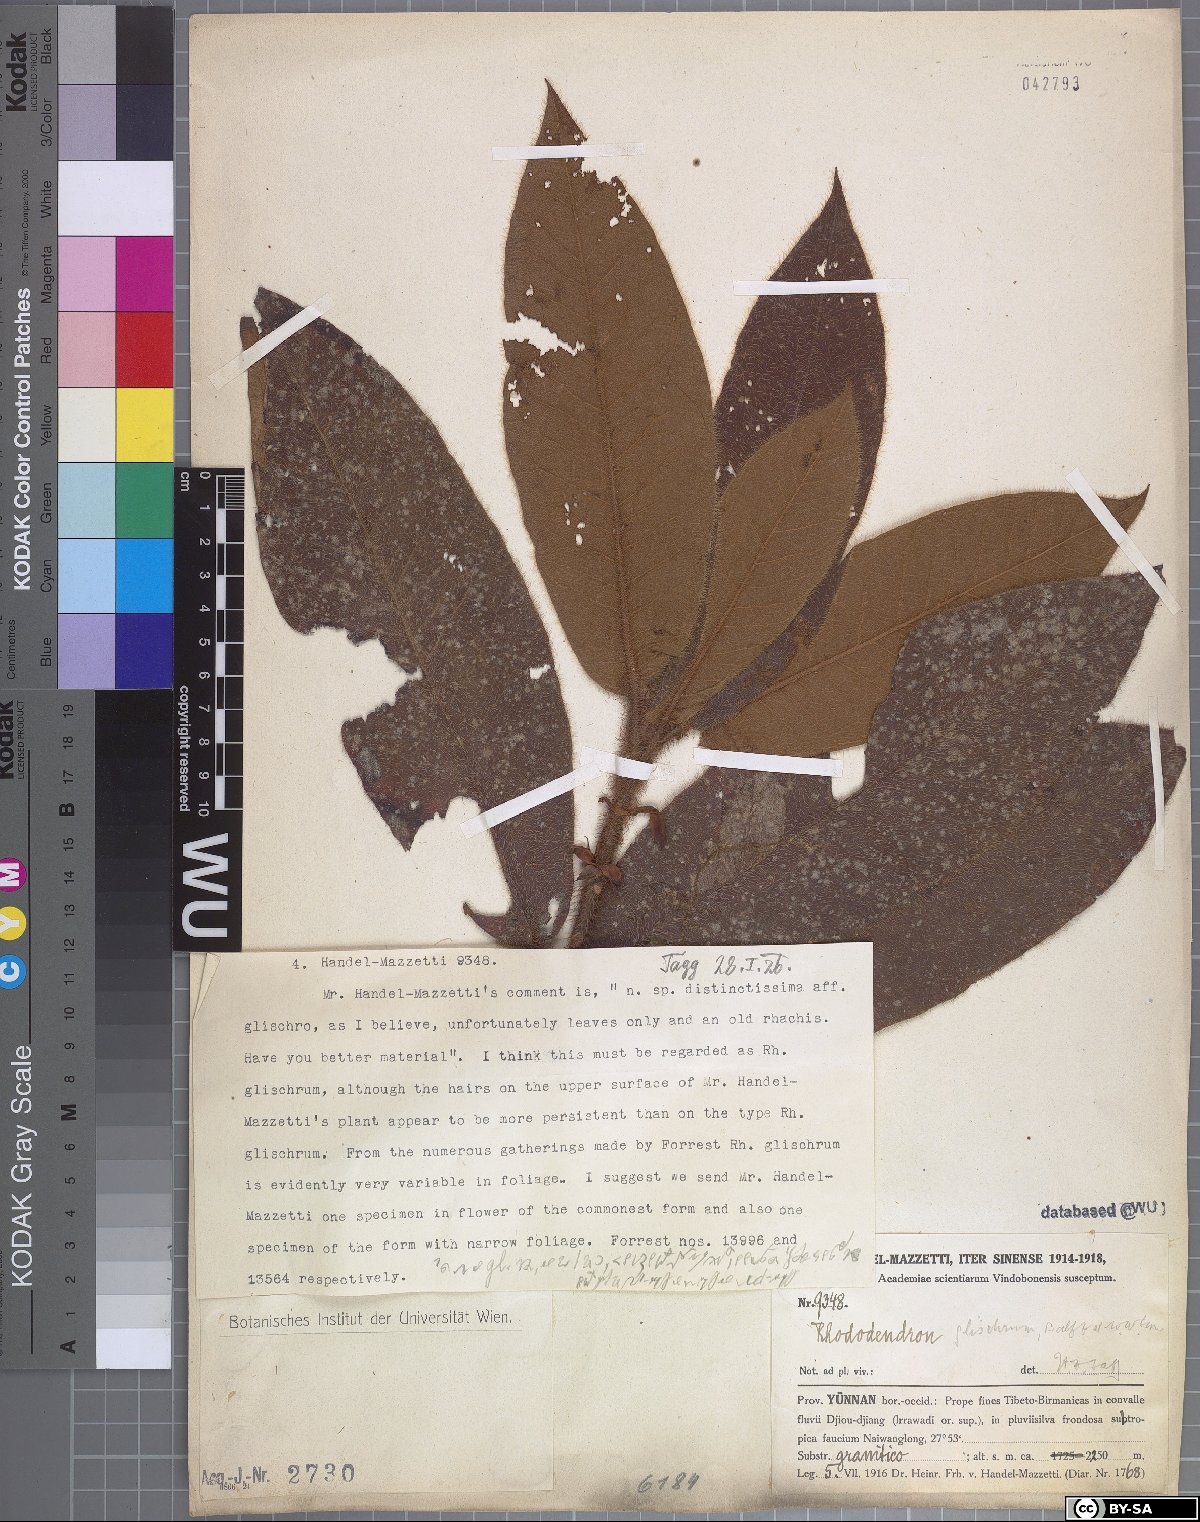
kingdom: Plantae
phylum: Tracheophyta
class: Magnoliopsida
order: Ericales
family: Ericaceae
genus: Rhododendron
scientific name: Rhododendron glischrum
